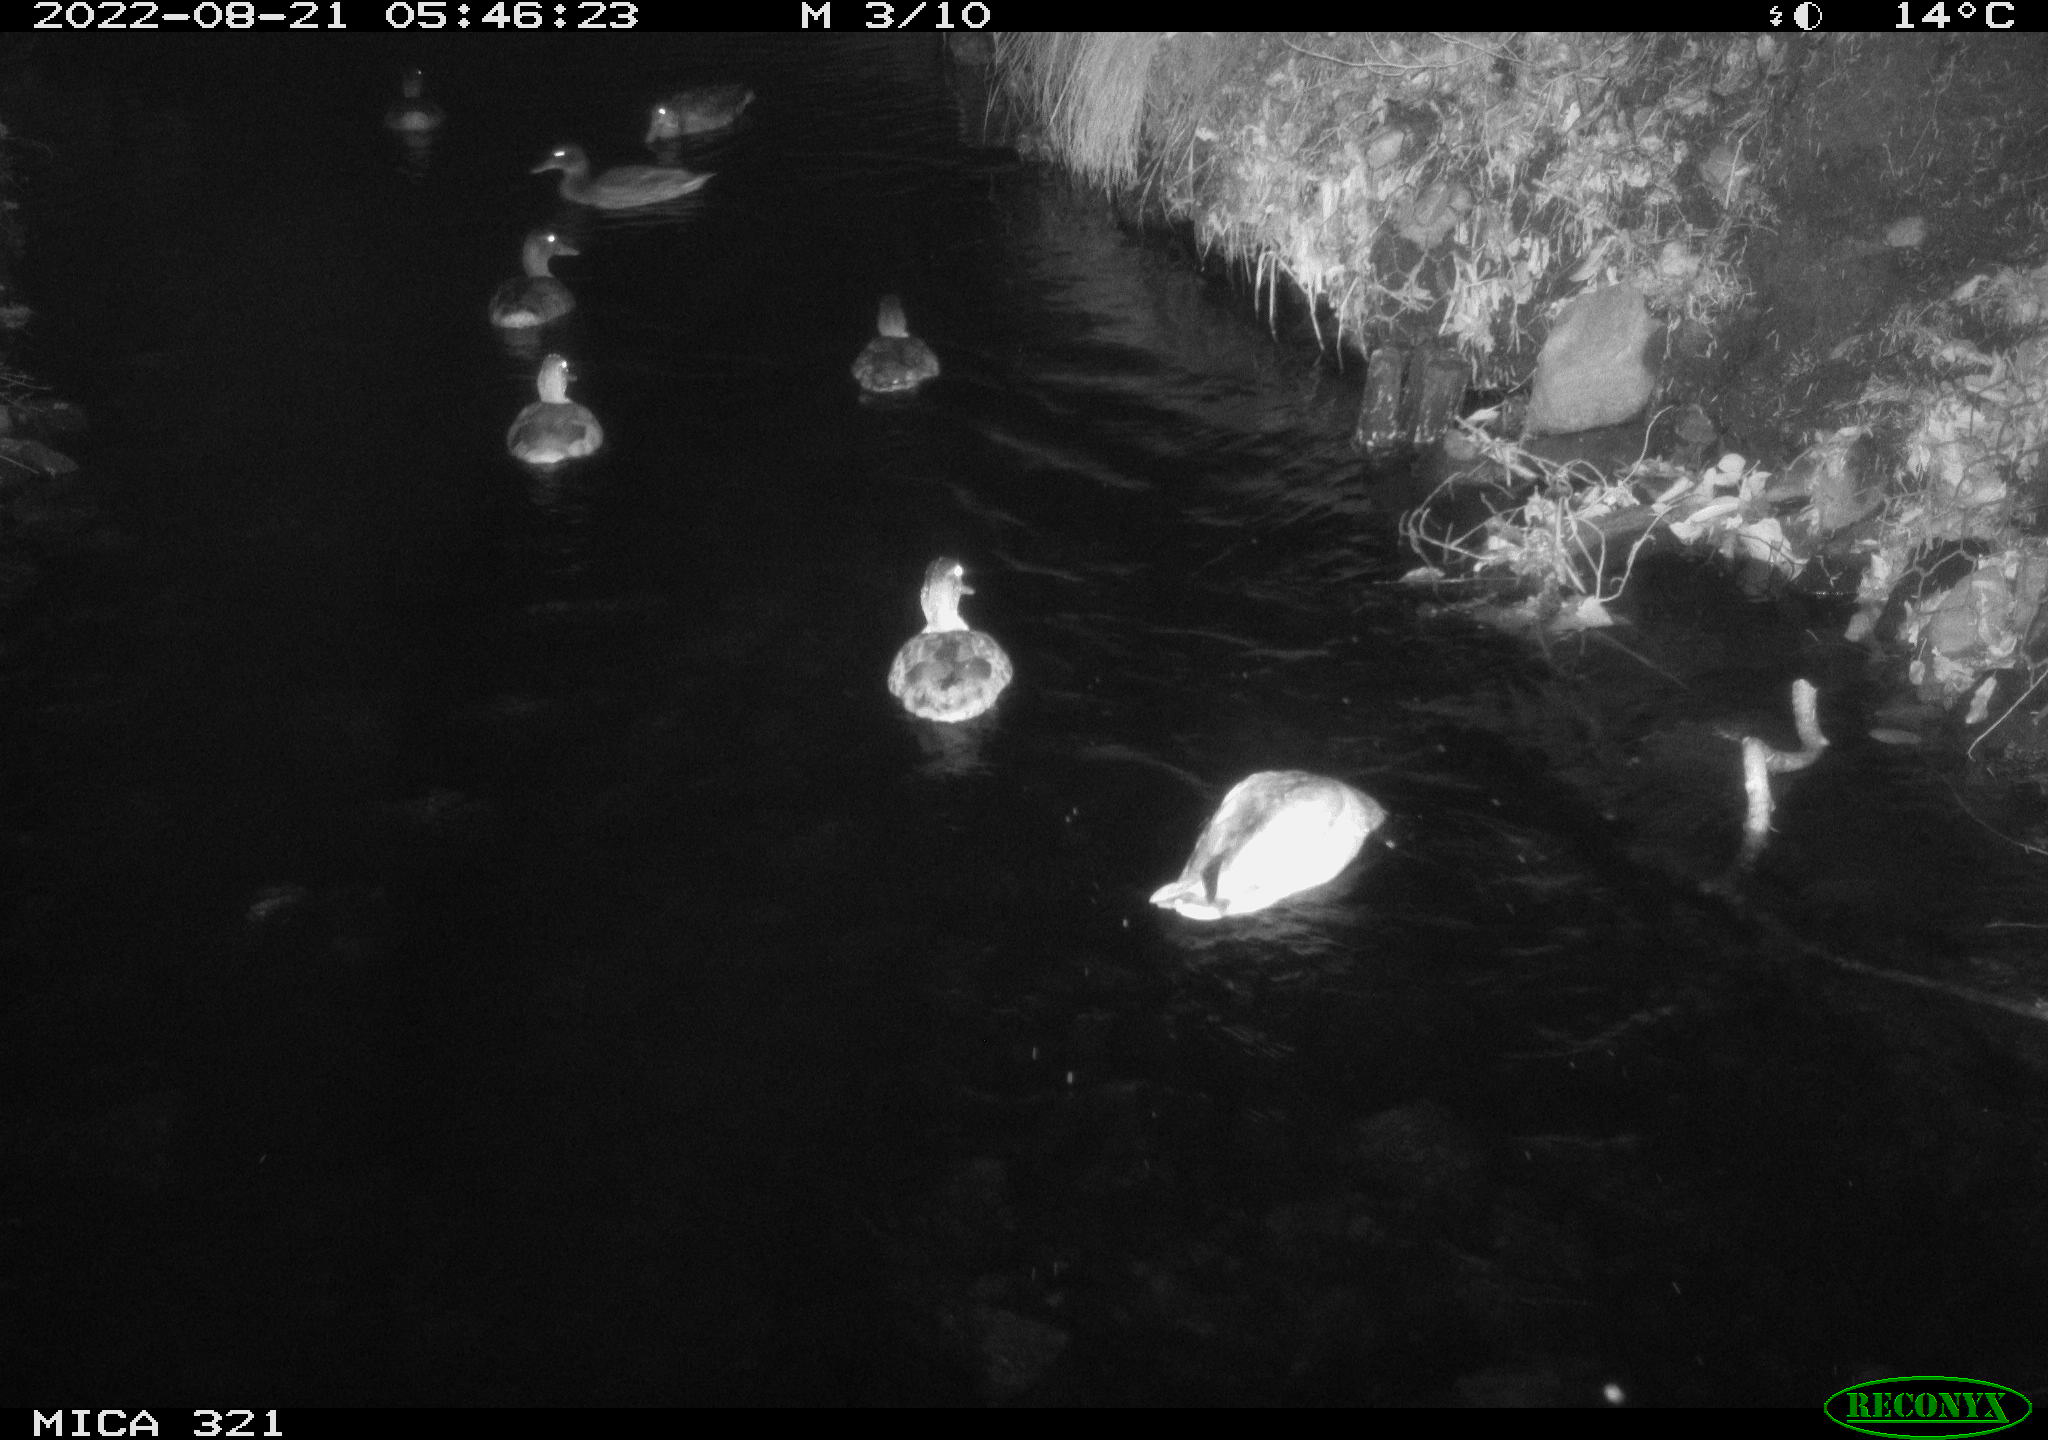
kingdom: Animalia
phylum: Chordata
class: Aves
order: Anseriformes
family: Anatidae
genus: Anas
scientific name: Anas platyrhynchos
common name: Mallard
